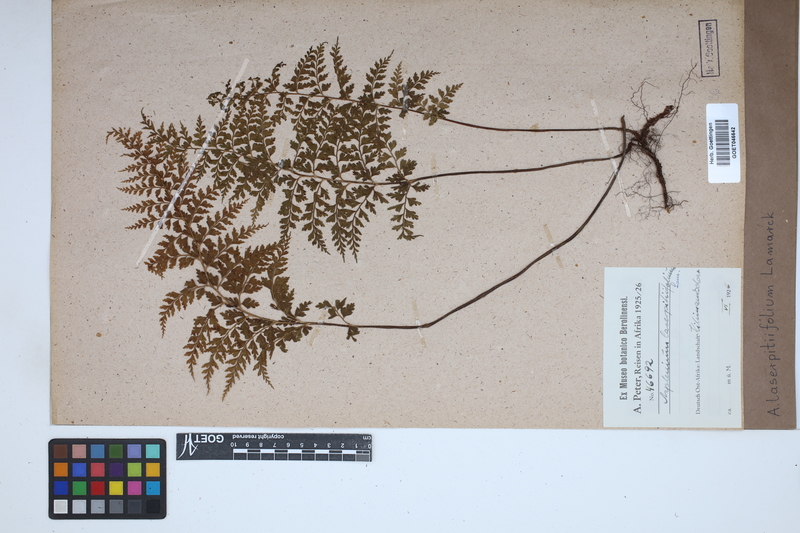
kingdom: Plantae
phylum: Tracheophyta
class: Polypodiopsida
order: Polypodiales
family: Aspleniaceae
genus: Asplenium
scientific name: Asplenium laserpitiifolium
